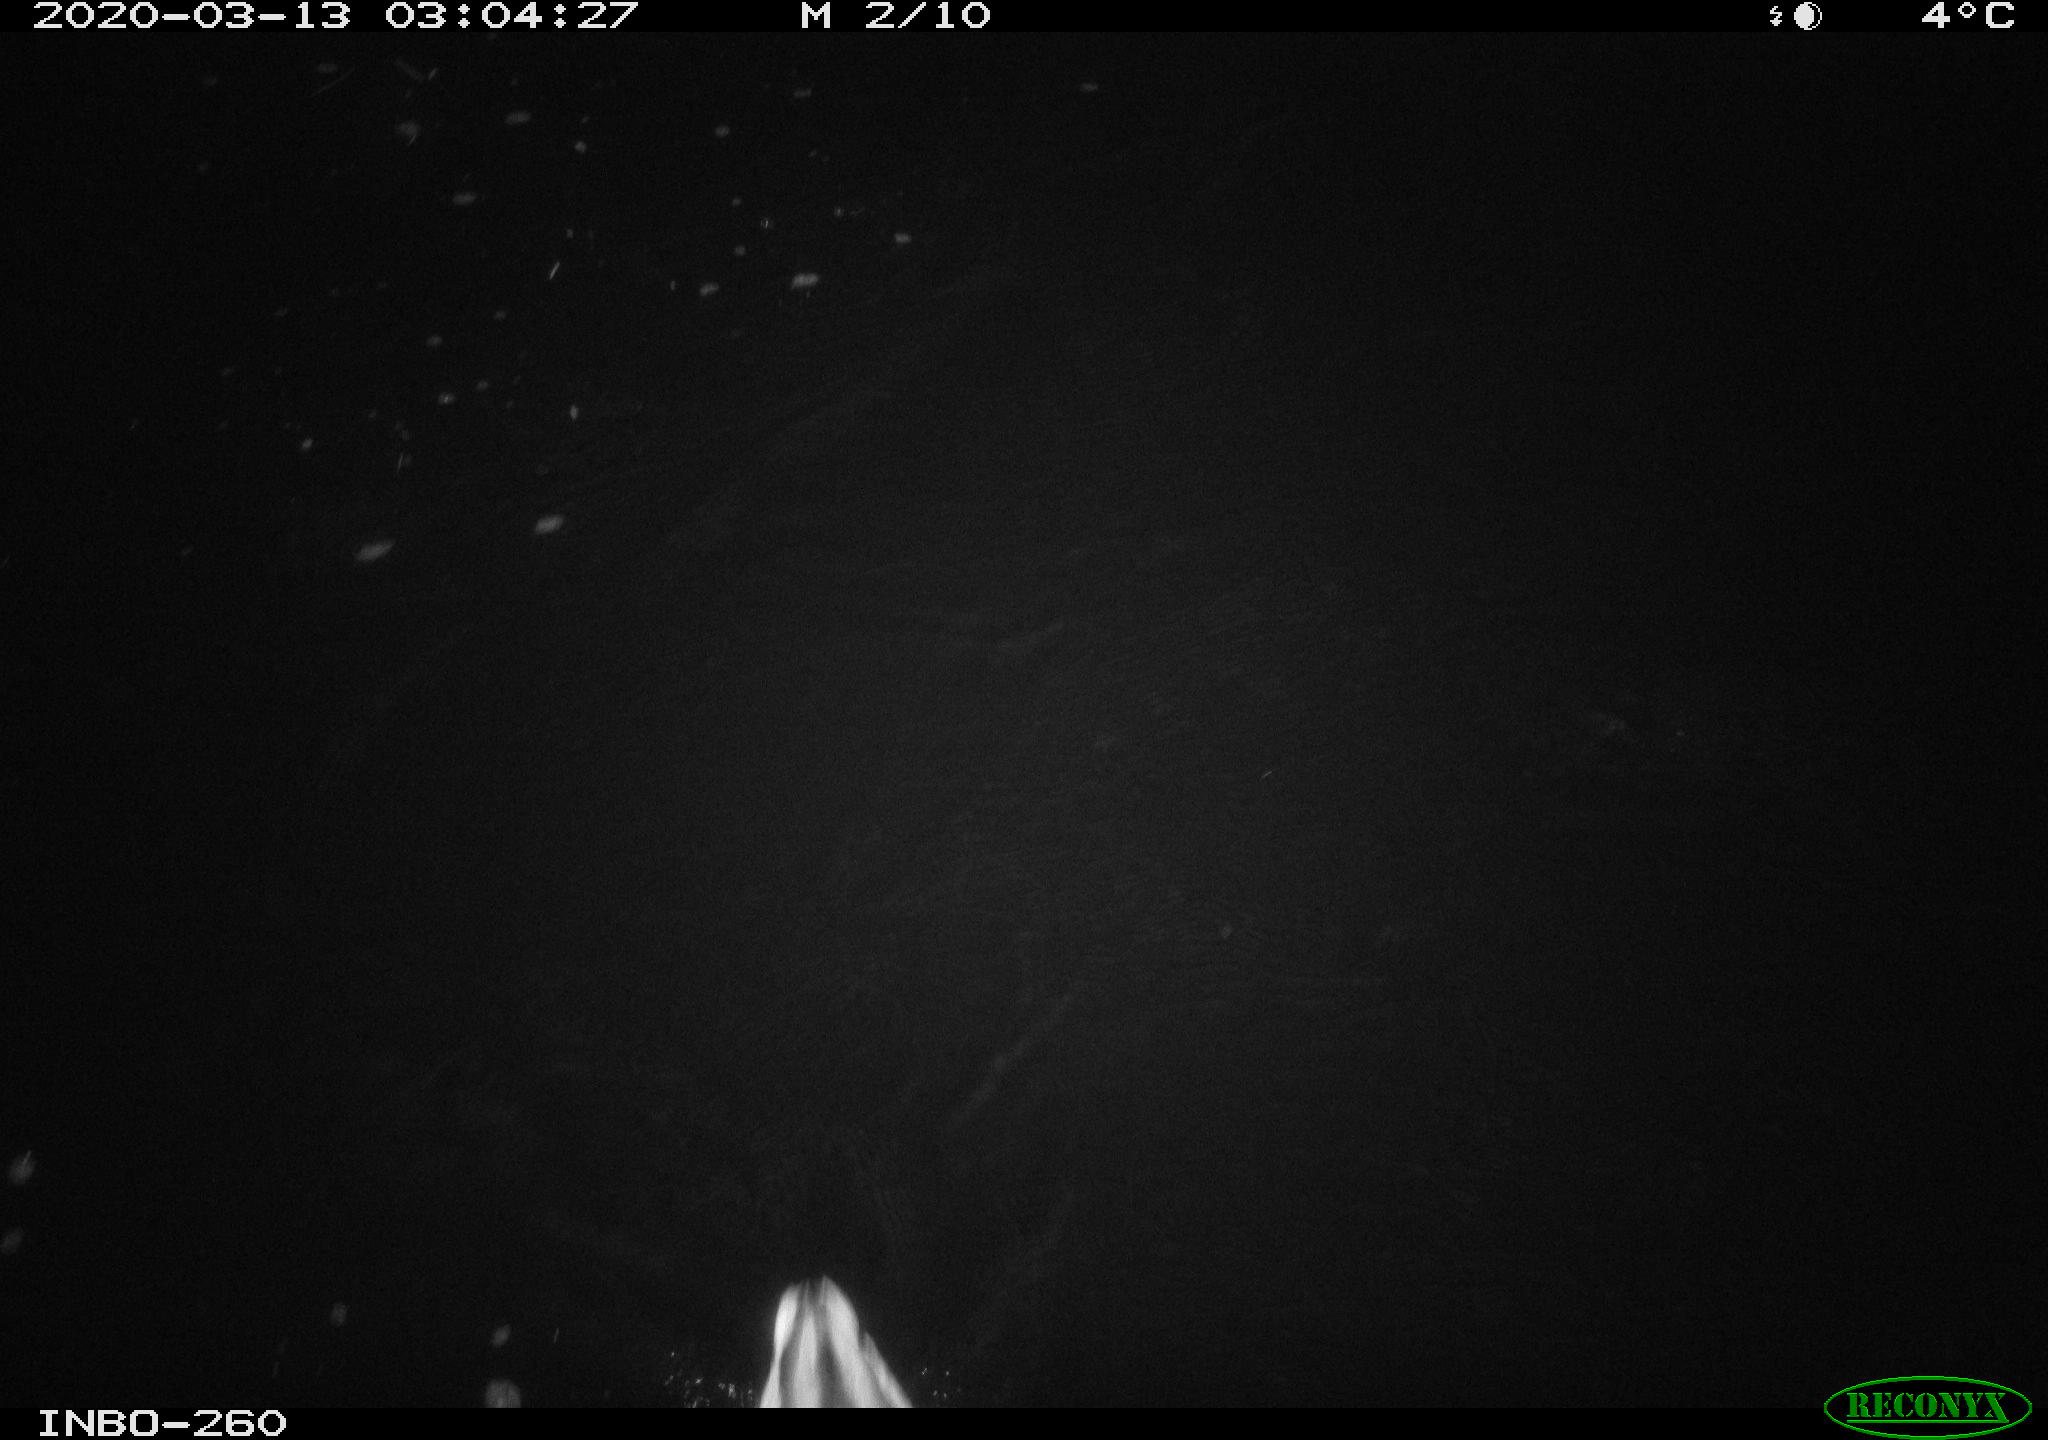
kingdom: Animalia
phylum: Chordata
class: Aves
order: Anseriformes
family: Anatidae
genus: Anas
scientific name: Anas platyrhynchos
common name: Mallard
